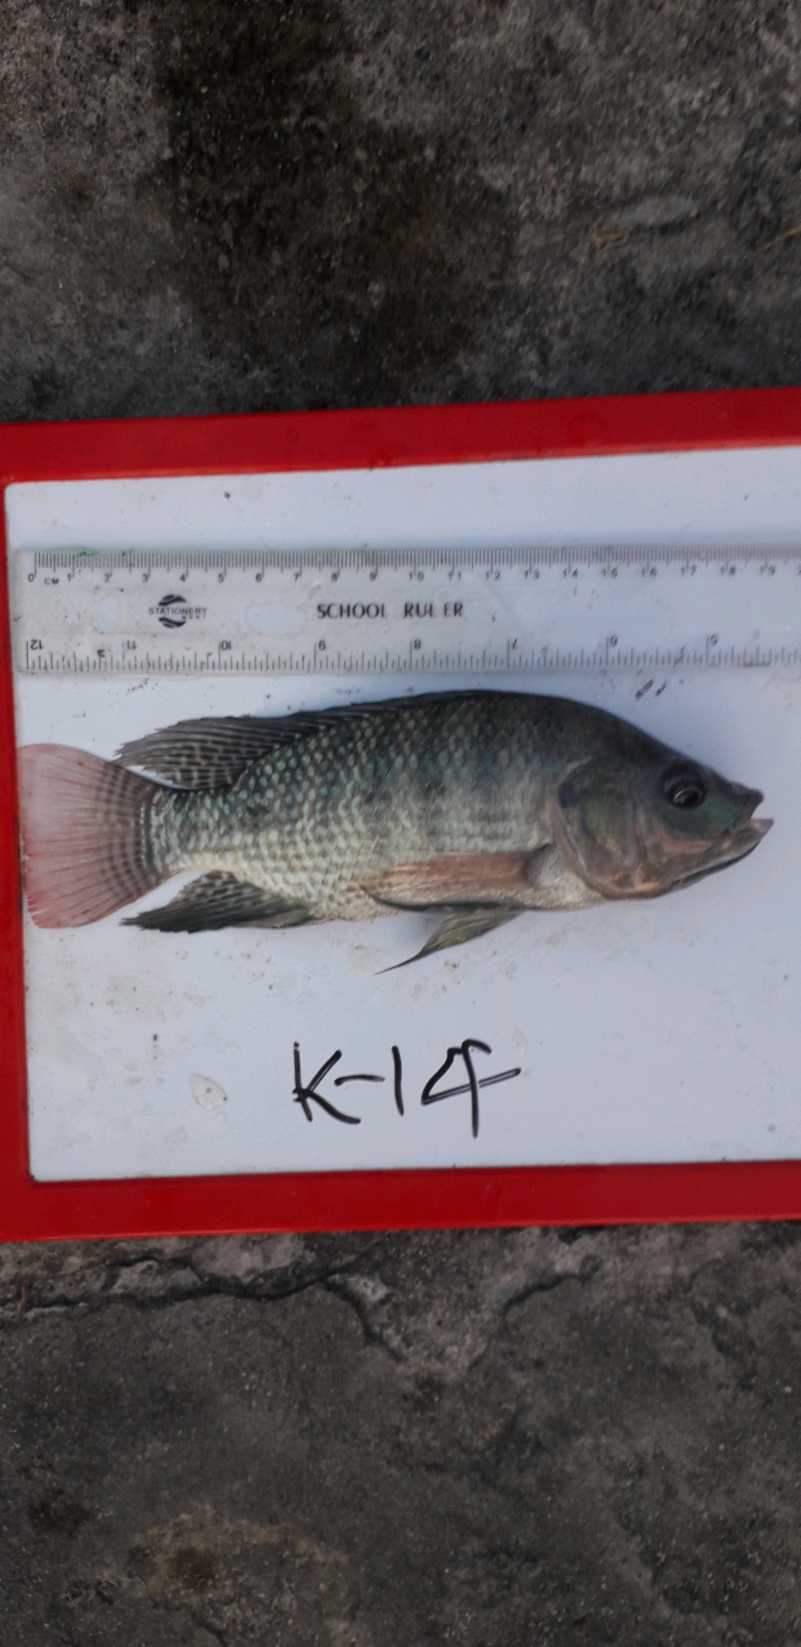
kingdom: Animalia
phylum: Chordata
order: Perciformes
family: Cichlidae
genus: Oreochromis
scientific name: Oreochromis niloticus
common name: Nile tilapia
